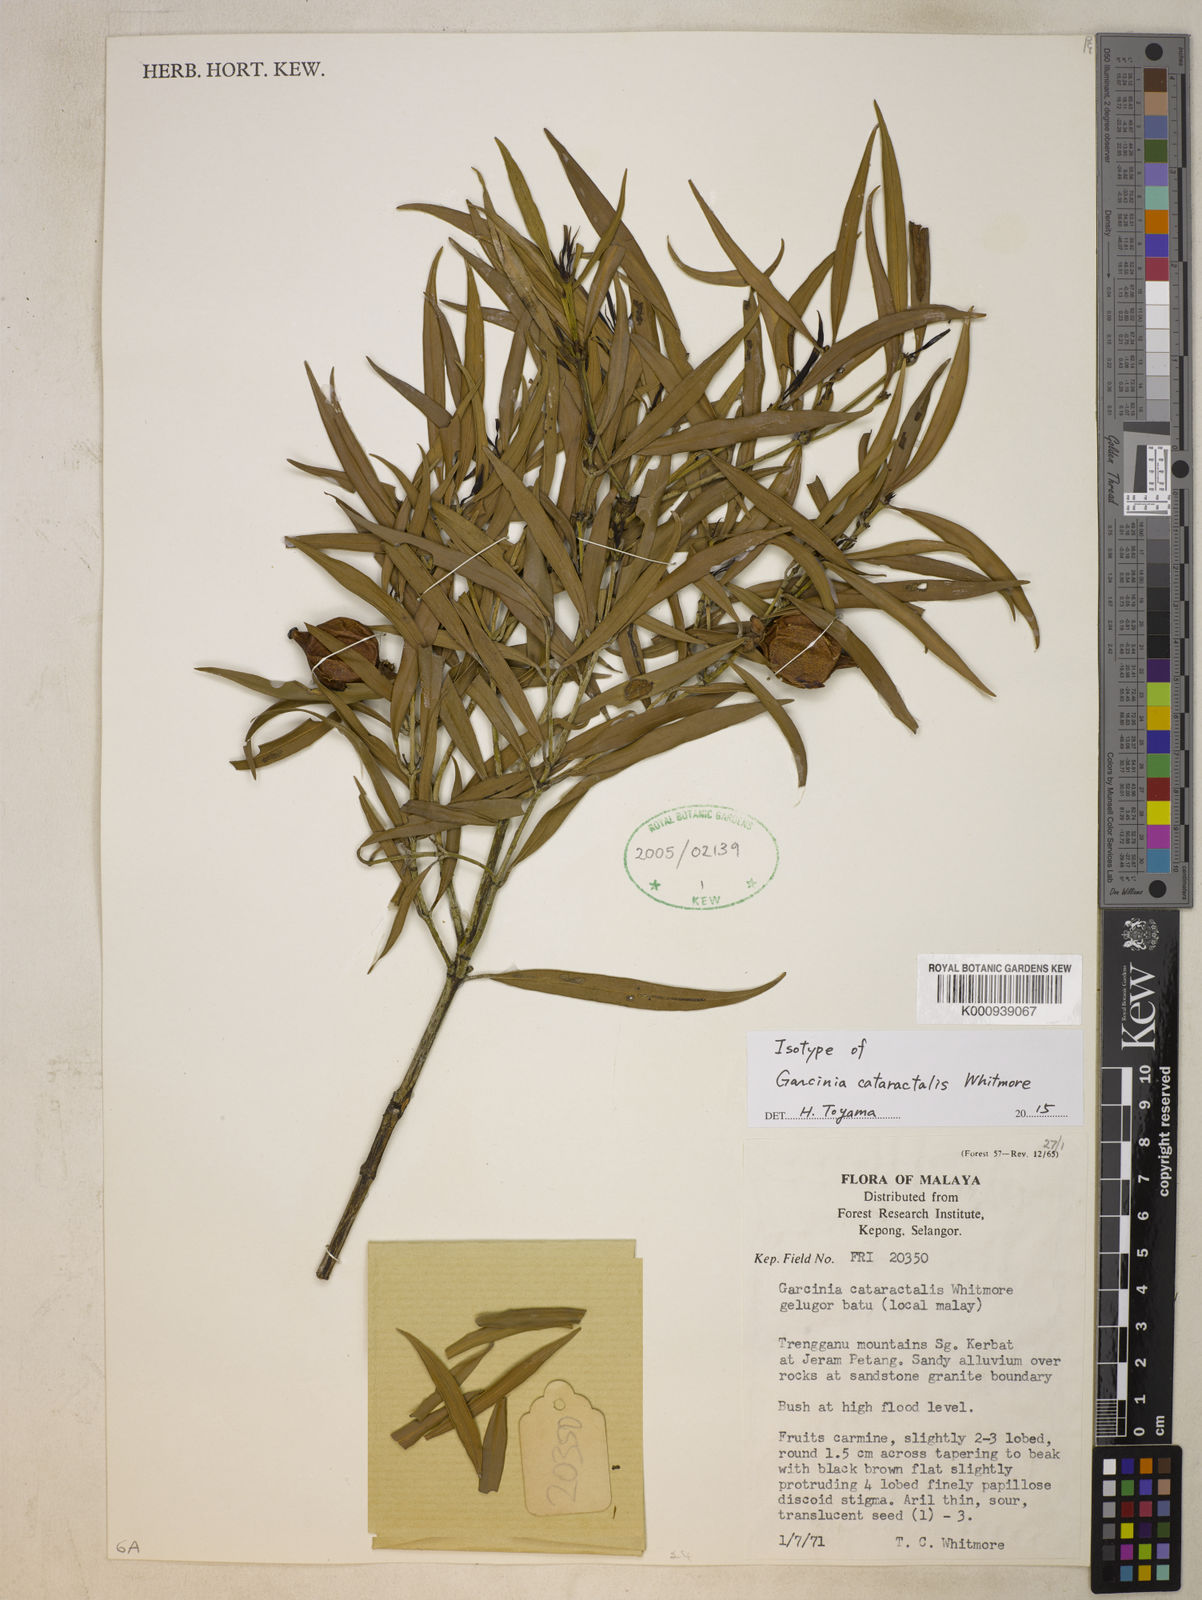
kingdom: Plantae
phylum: Tracheophyta
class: Magnoliopsida
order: Malpighiales
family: Clusiaceae
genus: Garcinia
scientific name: Garcinia diospyrifolia
